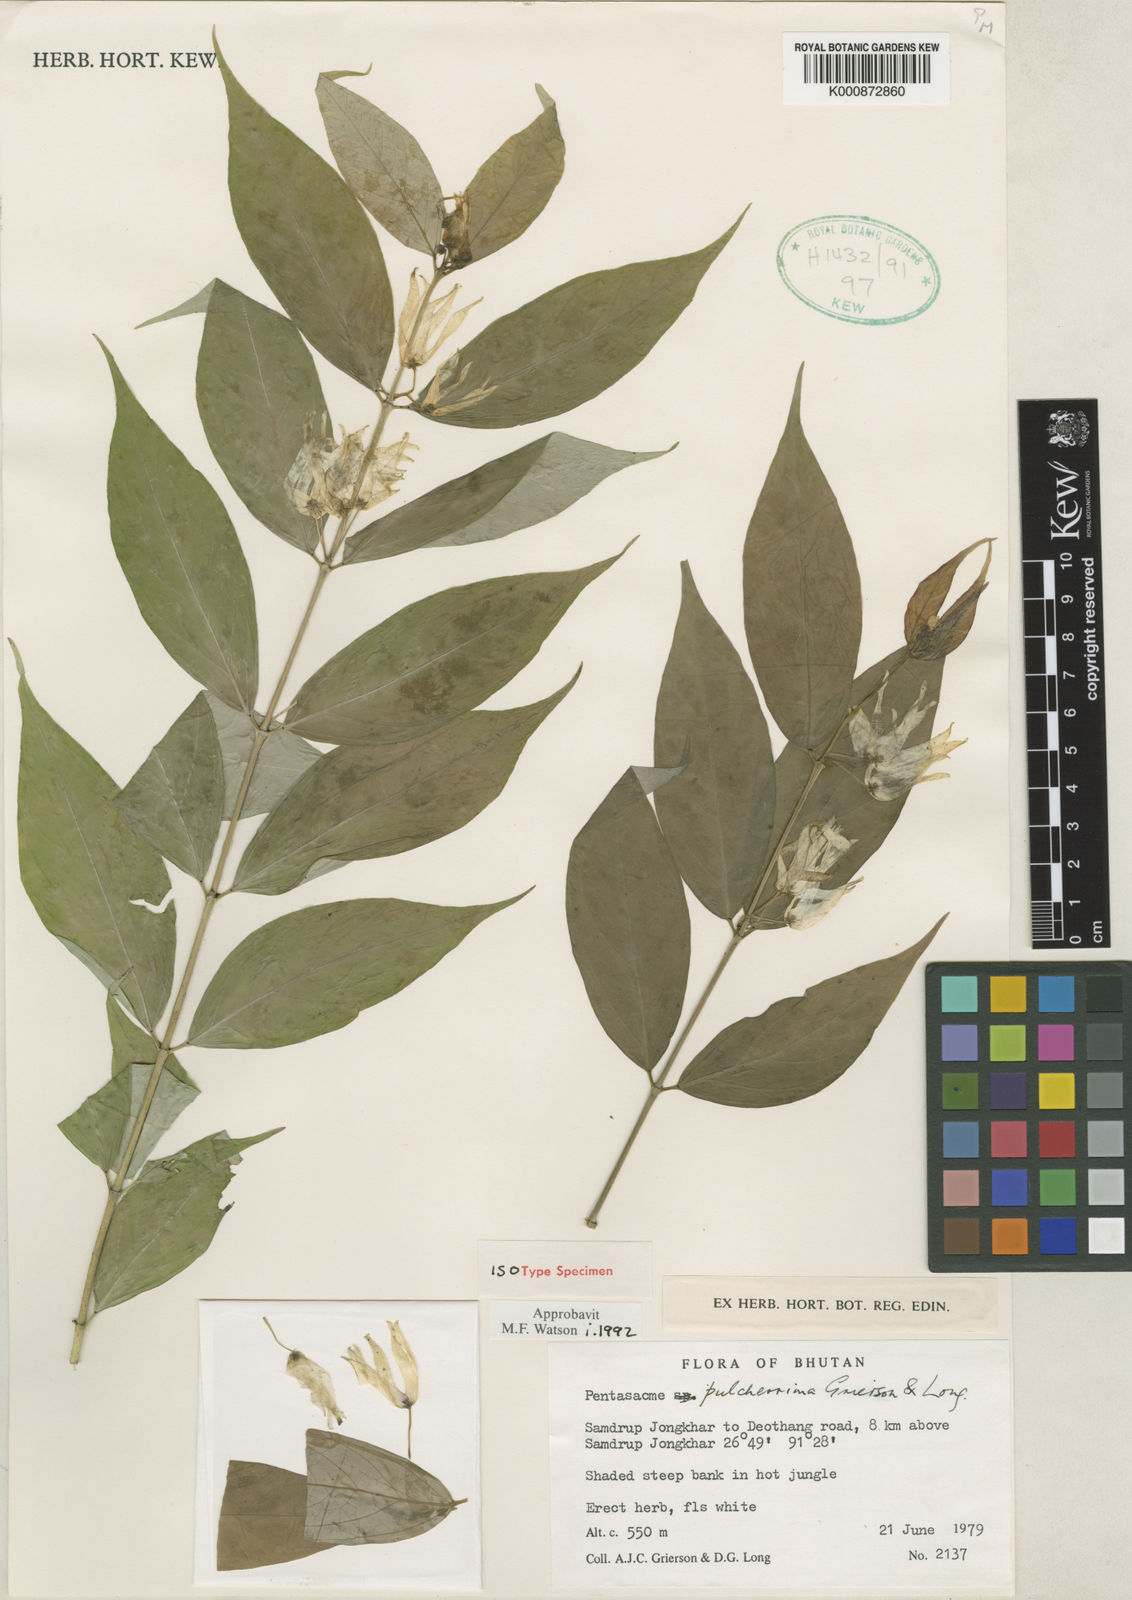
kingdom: Plantae
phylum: Tracheophyta
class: Magnoliopsida
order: Gentianales
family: Apocynaceae
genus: Pentasachme
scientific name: Pentasachme pulcherrima
